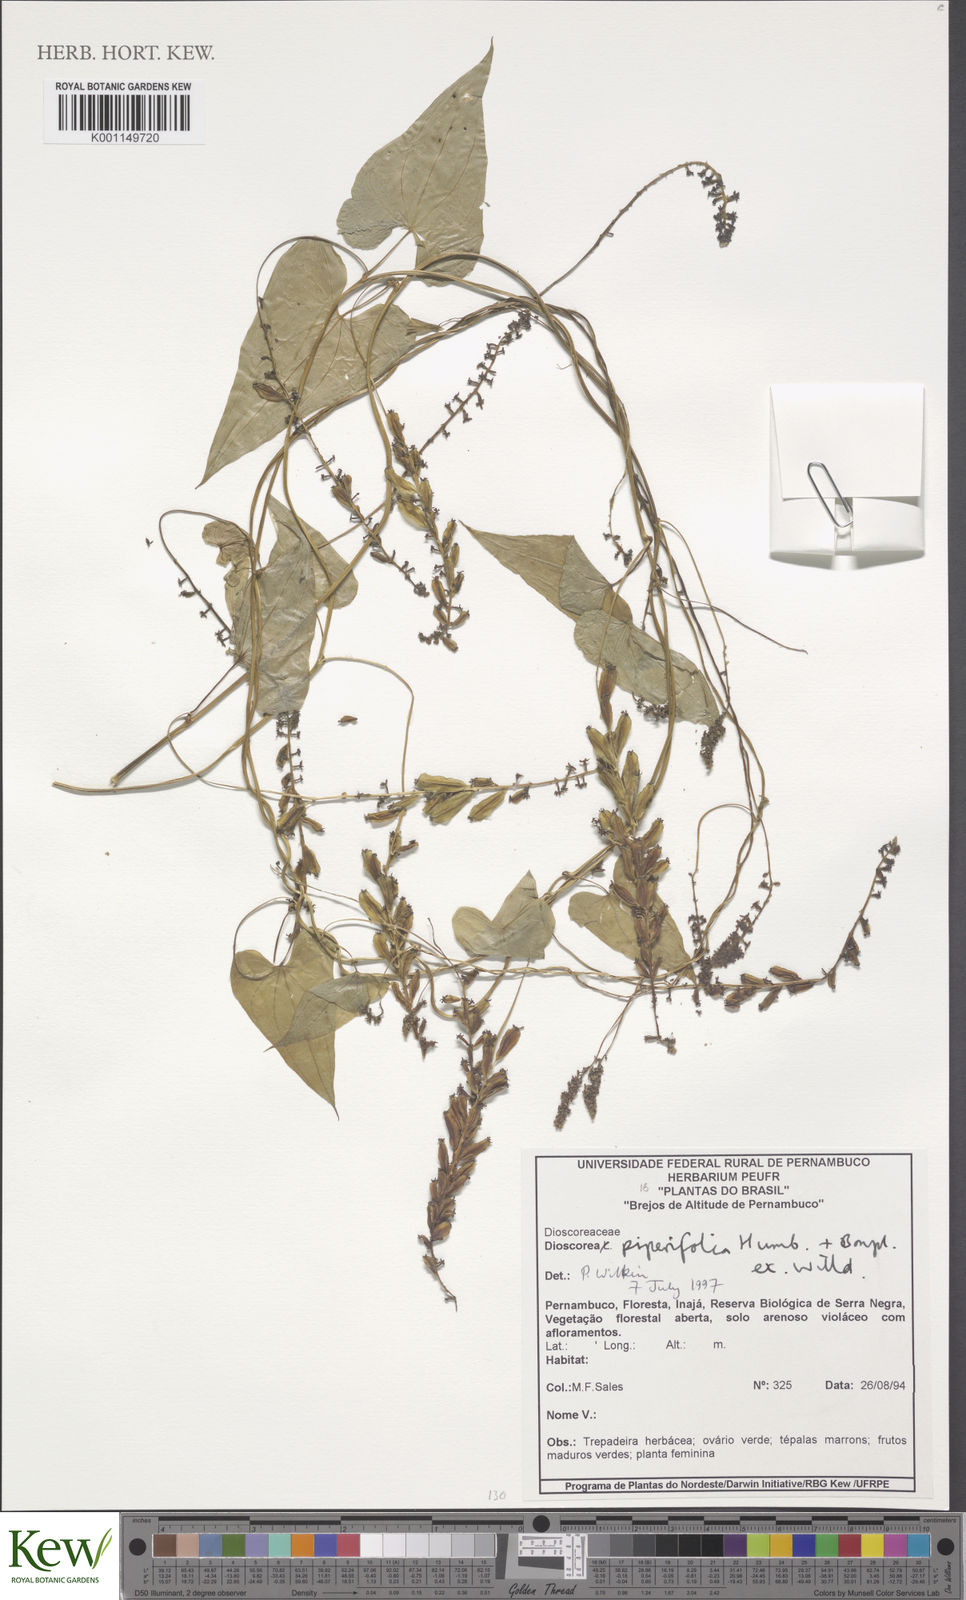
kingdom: Plantae
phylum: Tracheophyta
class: Liliopsida
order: Dioscoreales
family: Dioscoreaceae
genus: Dioscorea
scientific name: Dioscorea piperifolia
